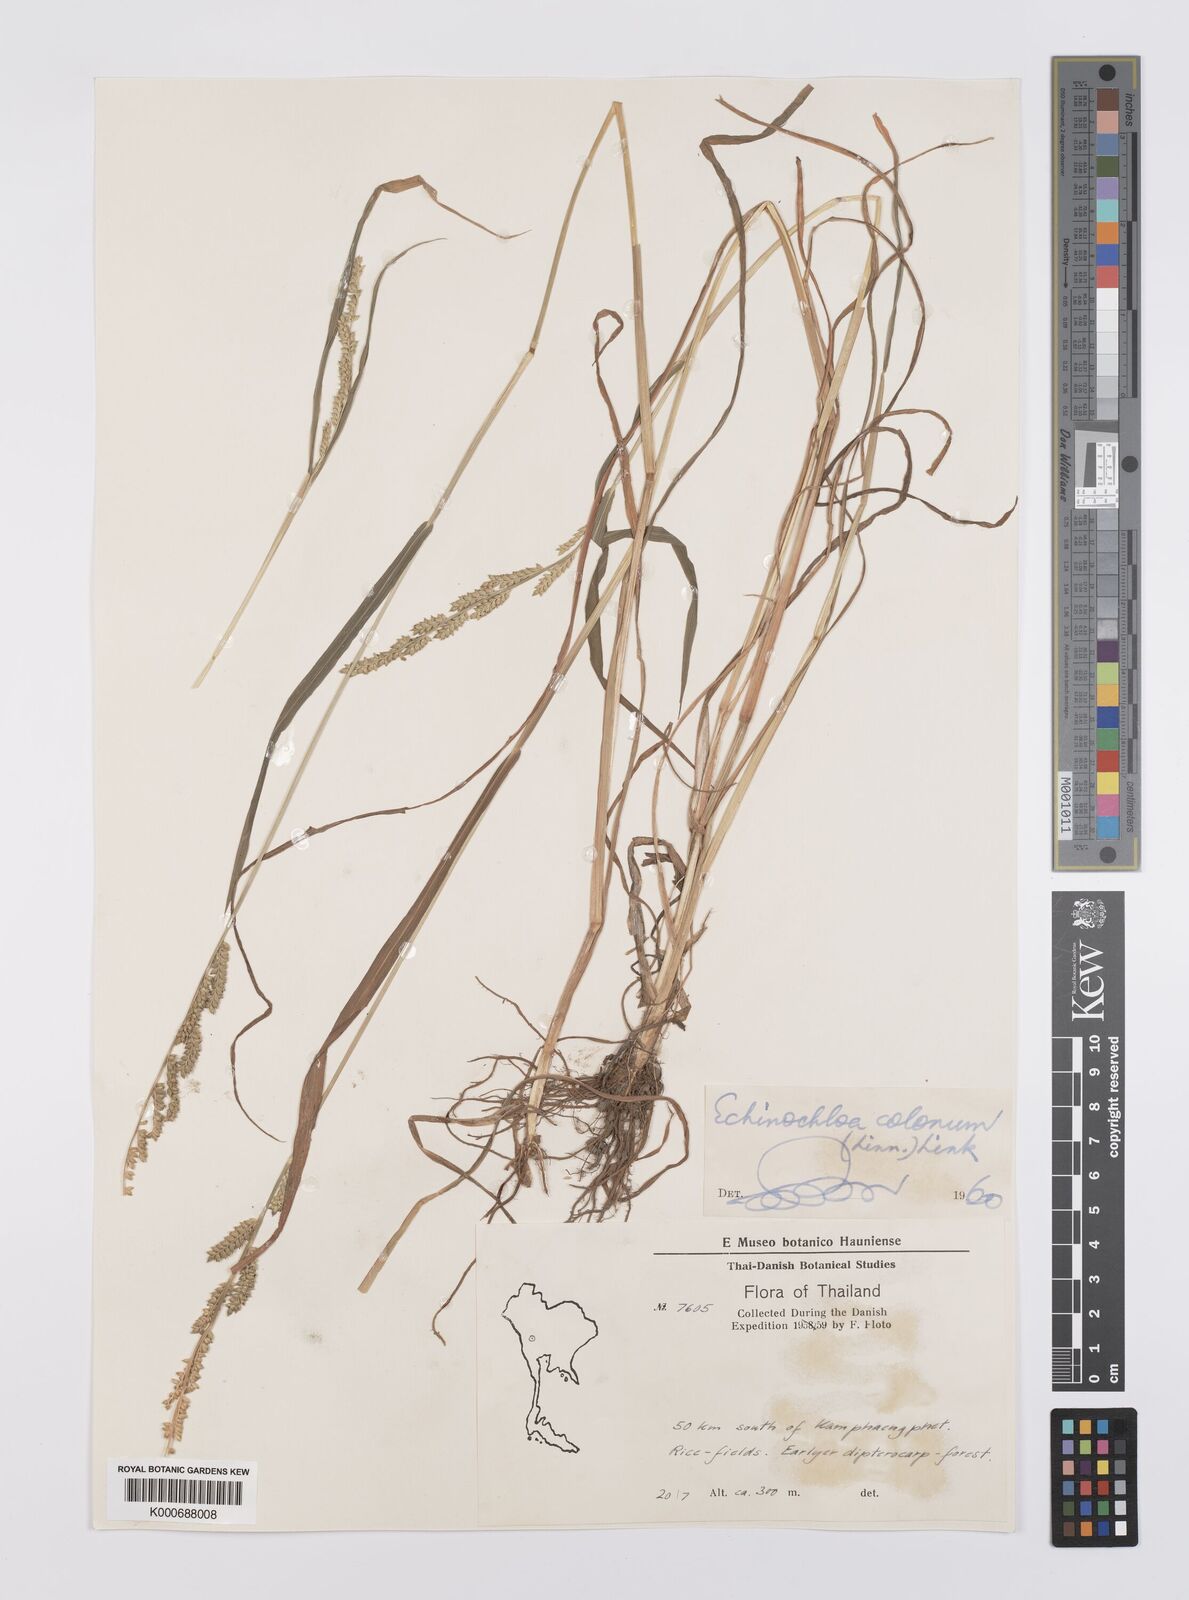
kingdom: Plantae
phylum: Tracheophyta
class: Liliopsida
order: Poales
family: Poaceae
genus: Echinochloa
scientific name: Echinochloa colonum
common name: Jungle rice
